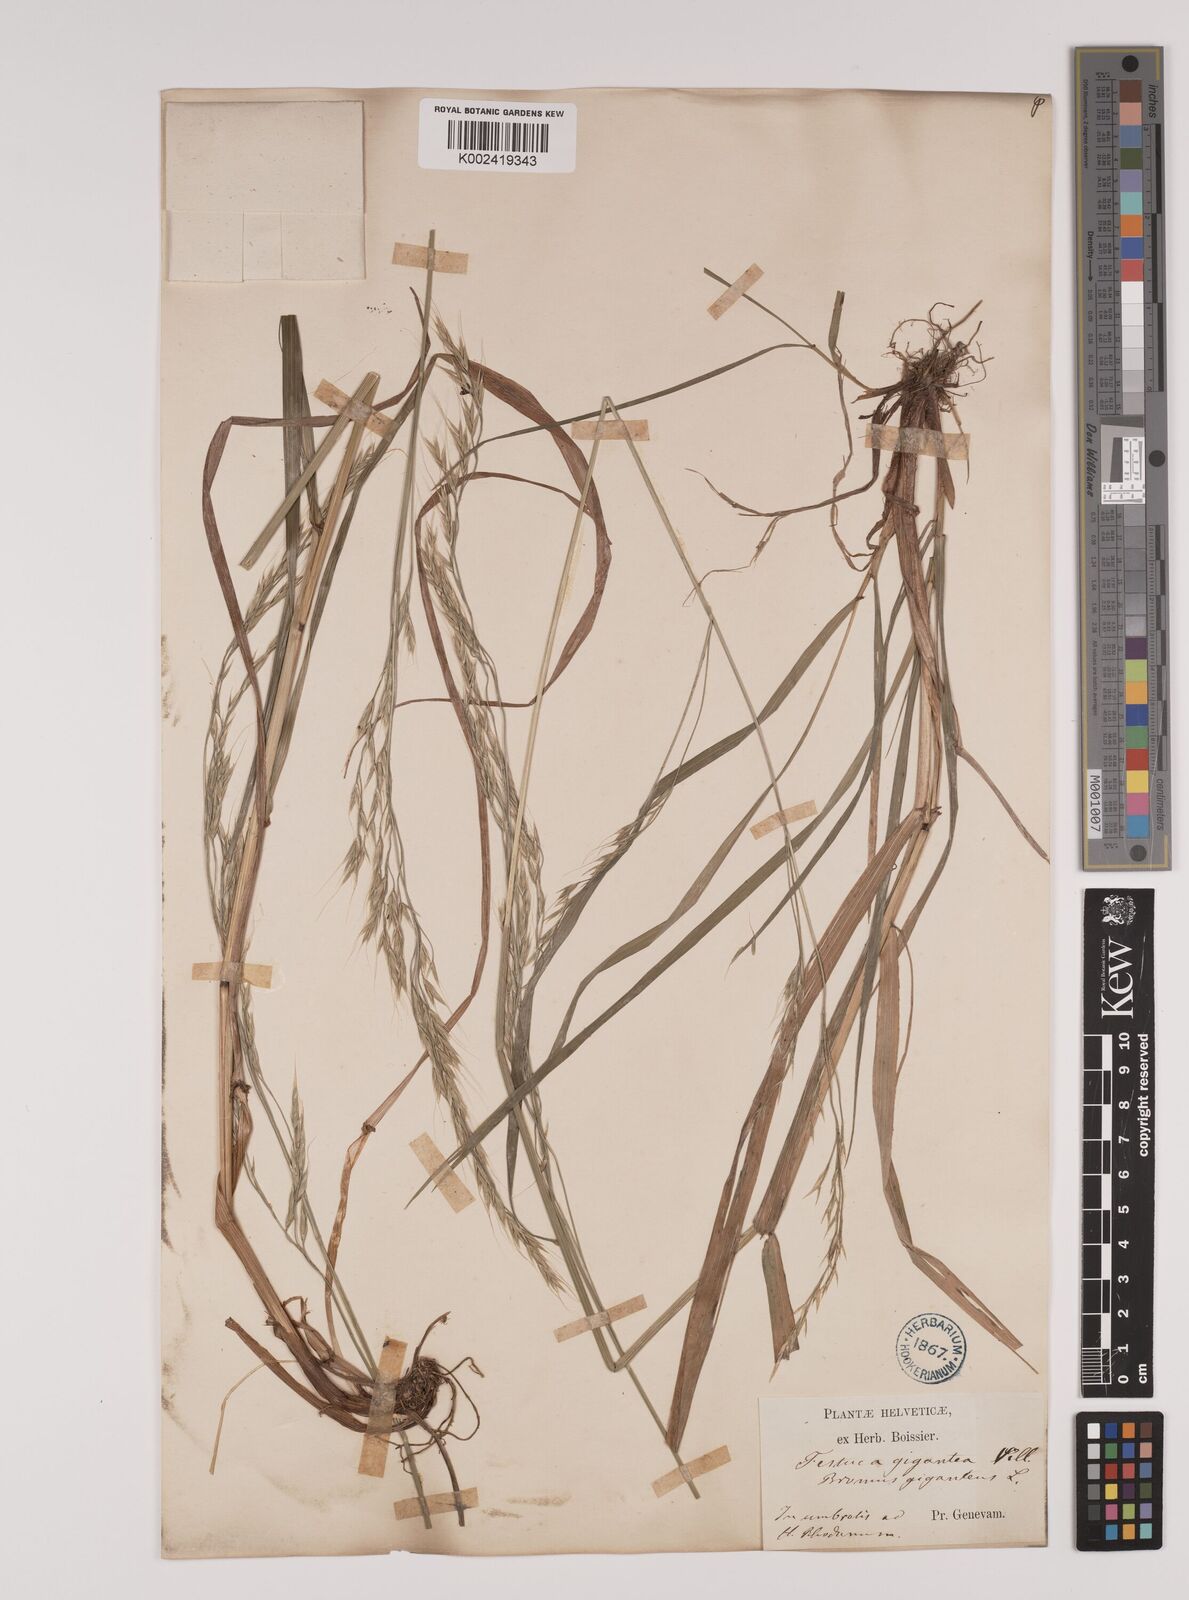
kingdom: Plantae
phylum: Tracheophyta
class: Liliopsida
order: Poales
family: Poaceae
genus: Lolium
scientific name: Lolium giganteum
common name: Giant fescue
